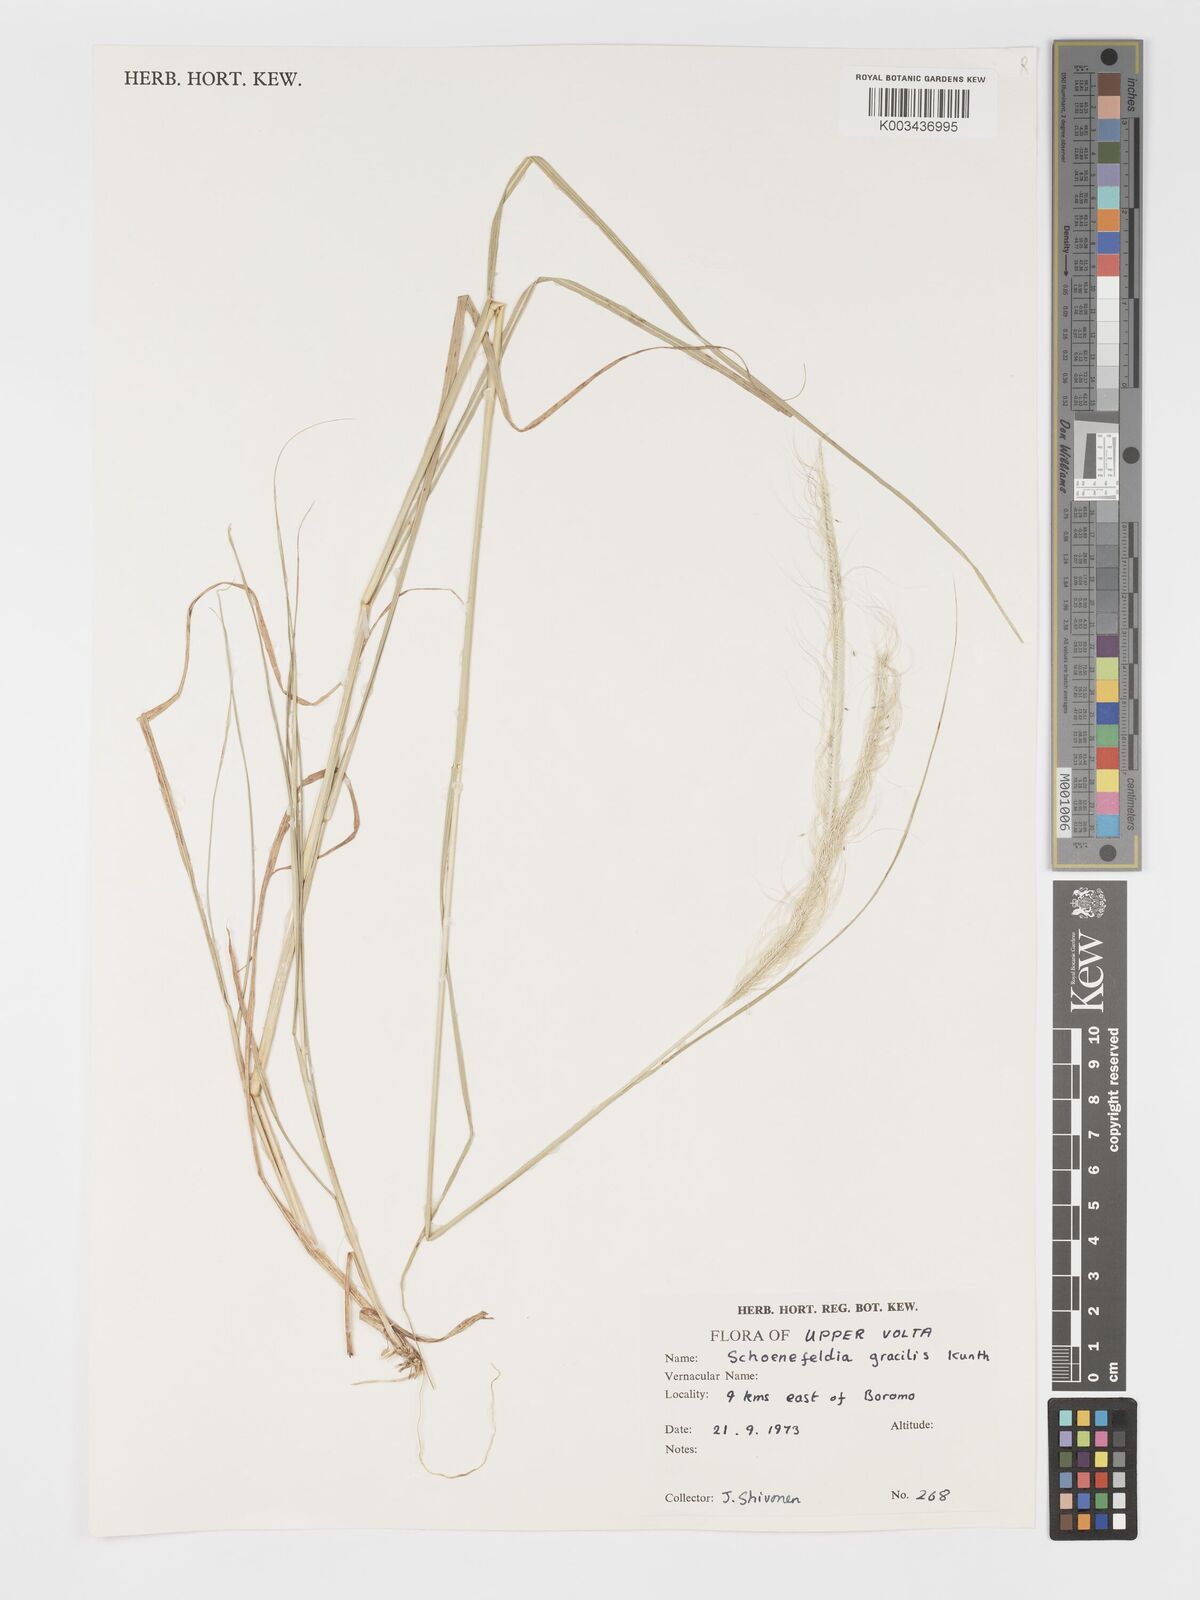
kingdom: Plantae
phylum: Tracheophyta
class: Liliopsida
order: Poales
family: Poaceae
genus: Schoenefeldia
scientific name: Schoenefeldia gracilis
